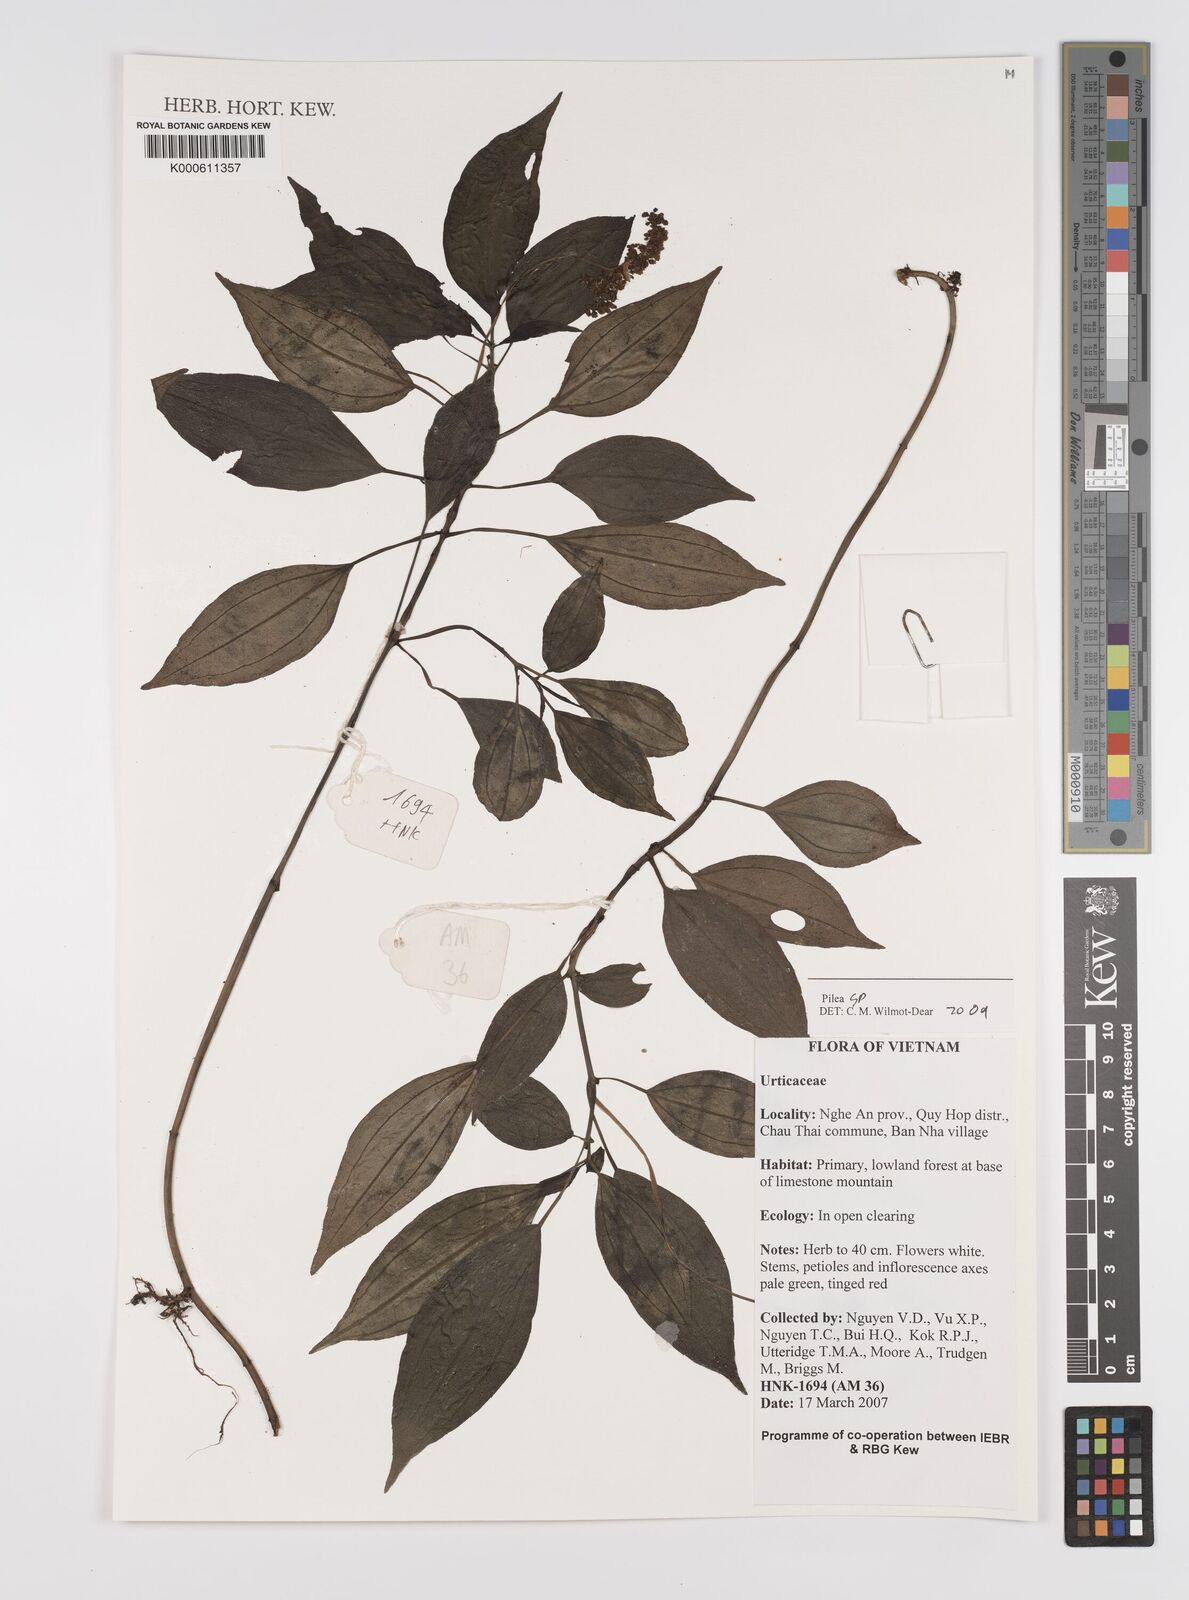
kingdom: Plantae
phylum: Tracheophyta
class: Magnoliopsida
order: Rosales
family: Urticaceae
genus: Pilea
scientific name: Pilea
